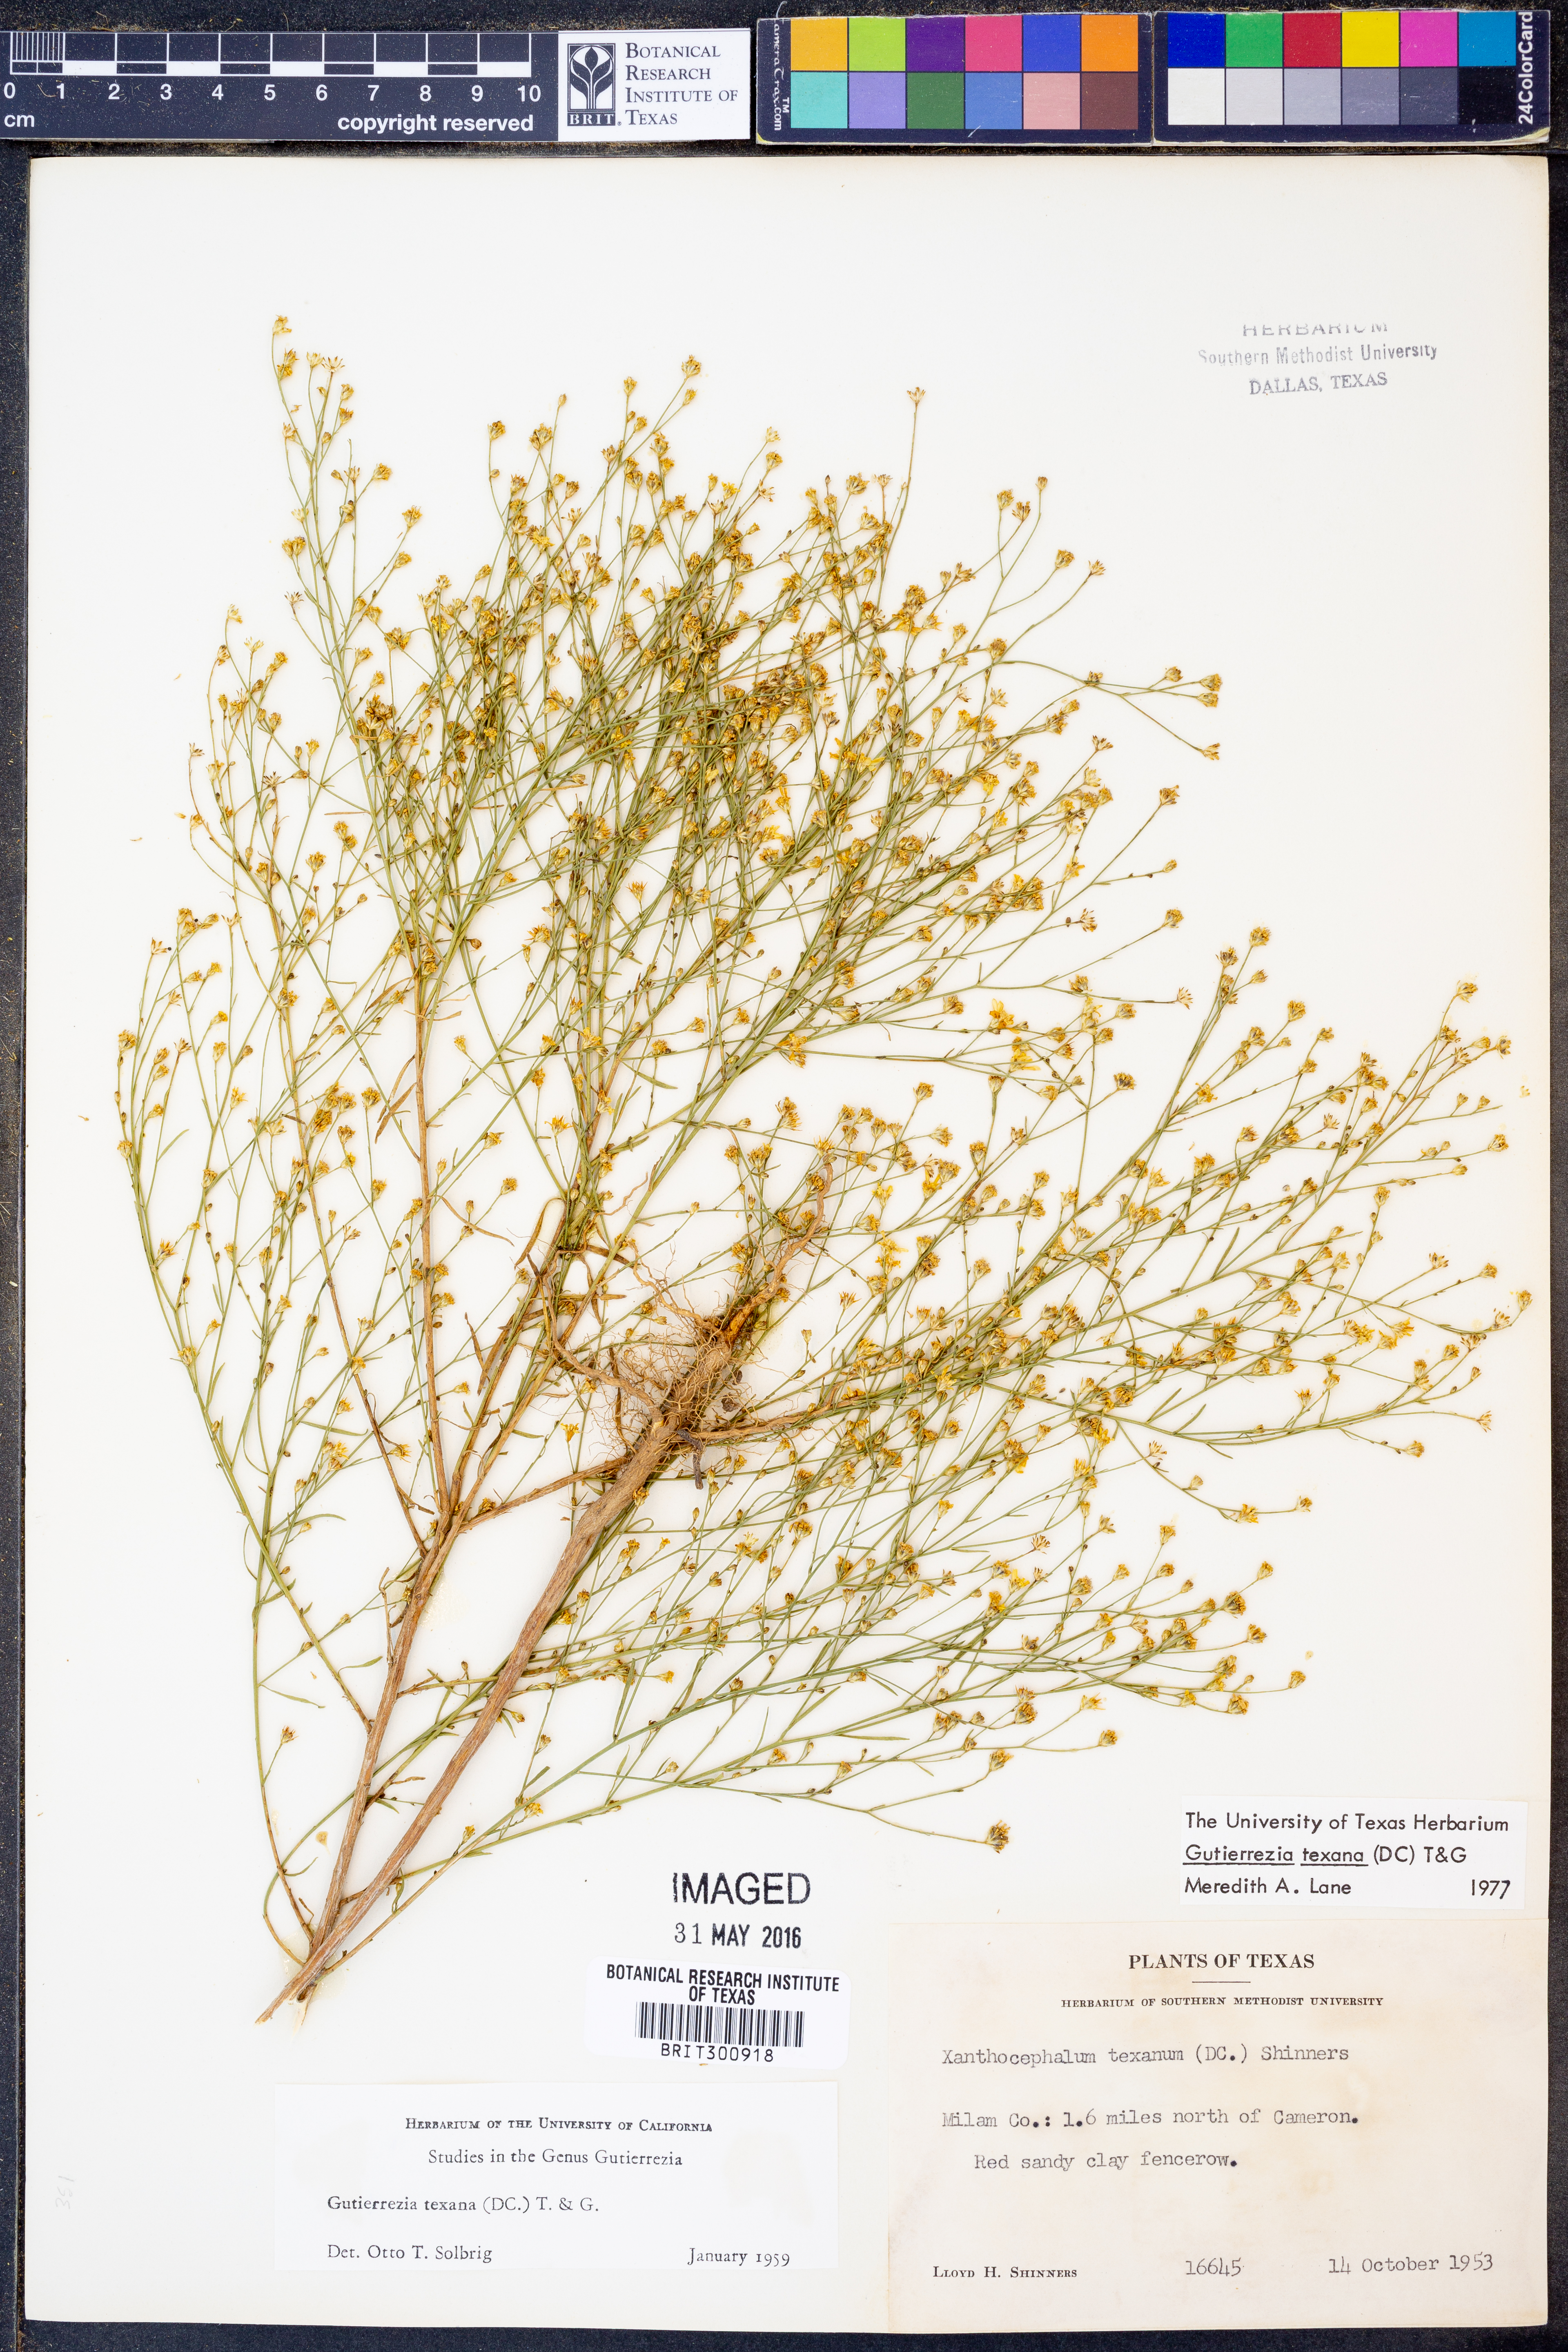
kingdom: Plantae
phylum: Tracheophyta
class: Magnoliopsida
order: Asterales
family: Asteraceae
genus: Gutierrezia
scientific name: Gutierrezia texana
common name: Texas snakeweed
